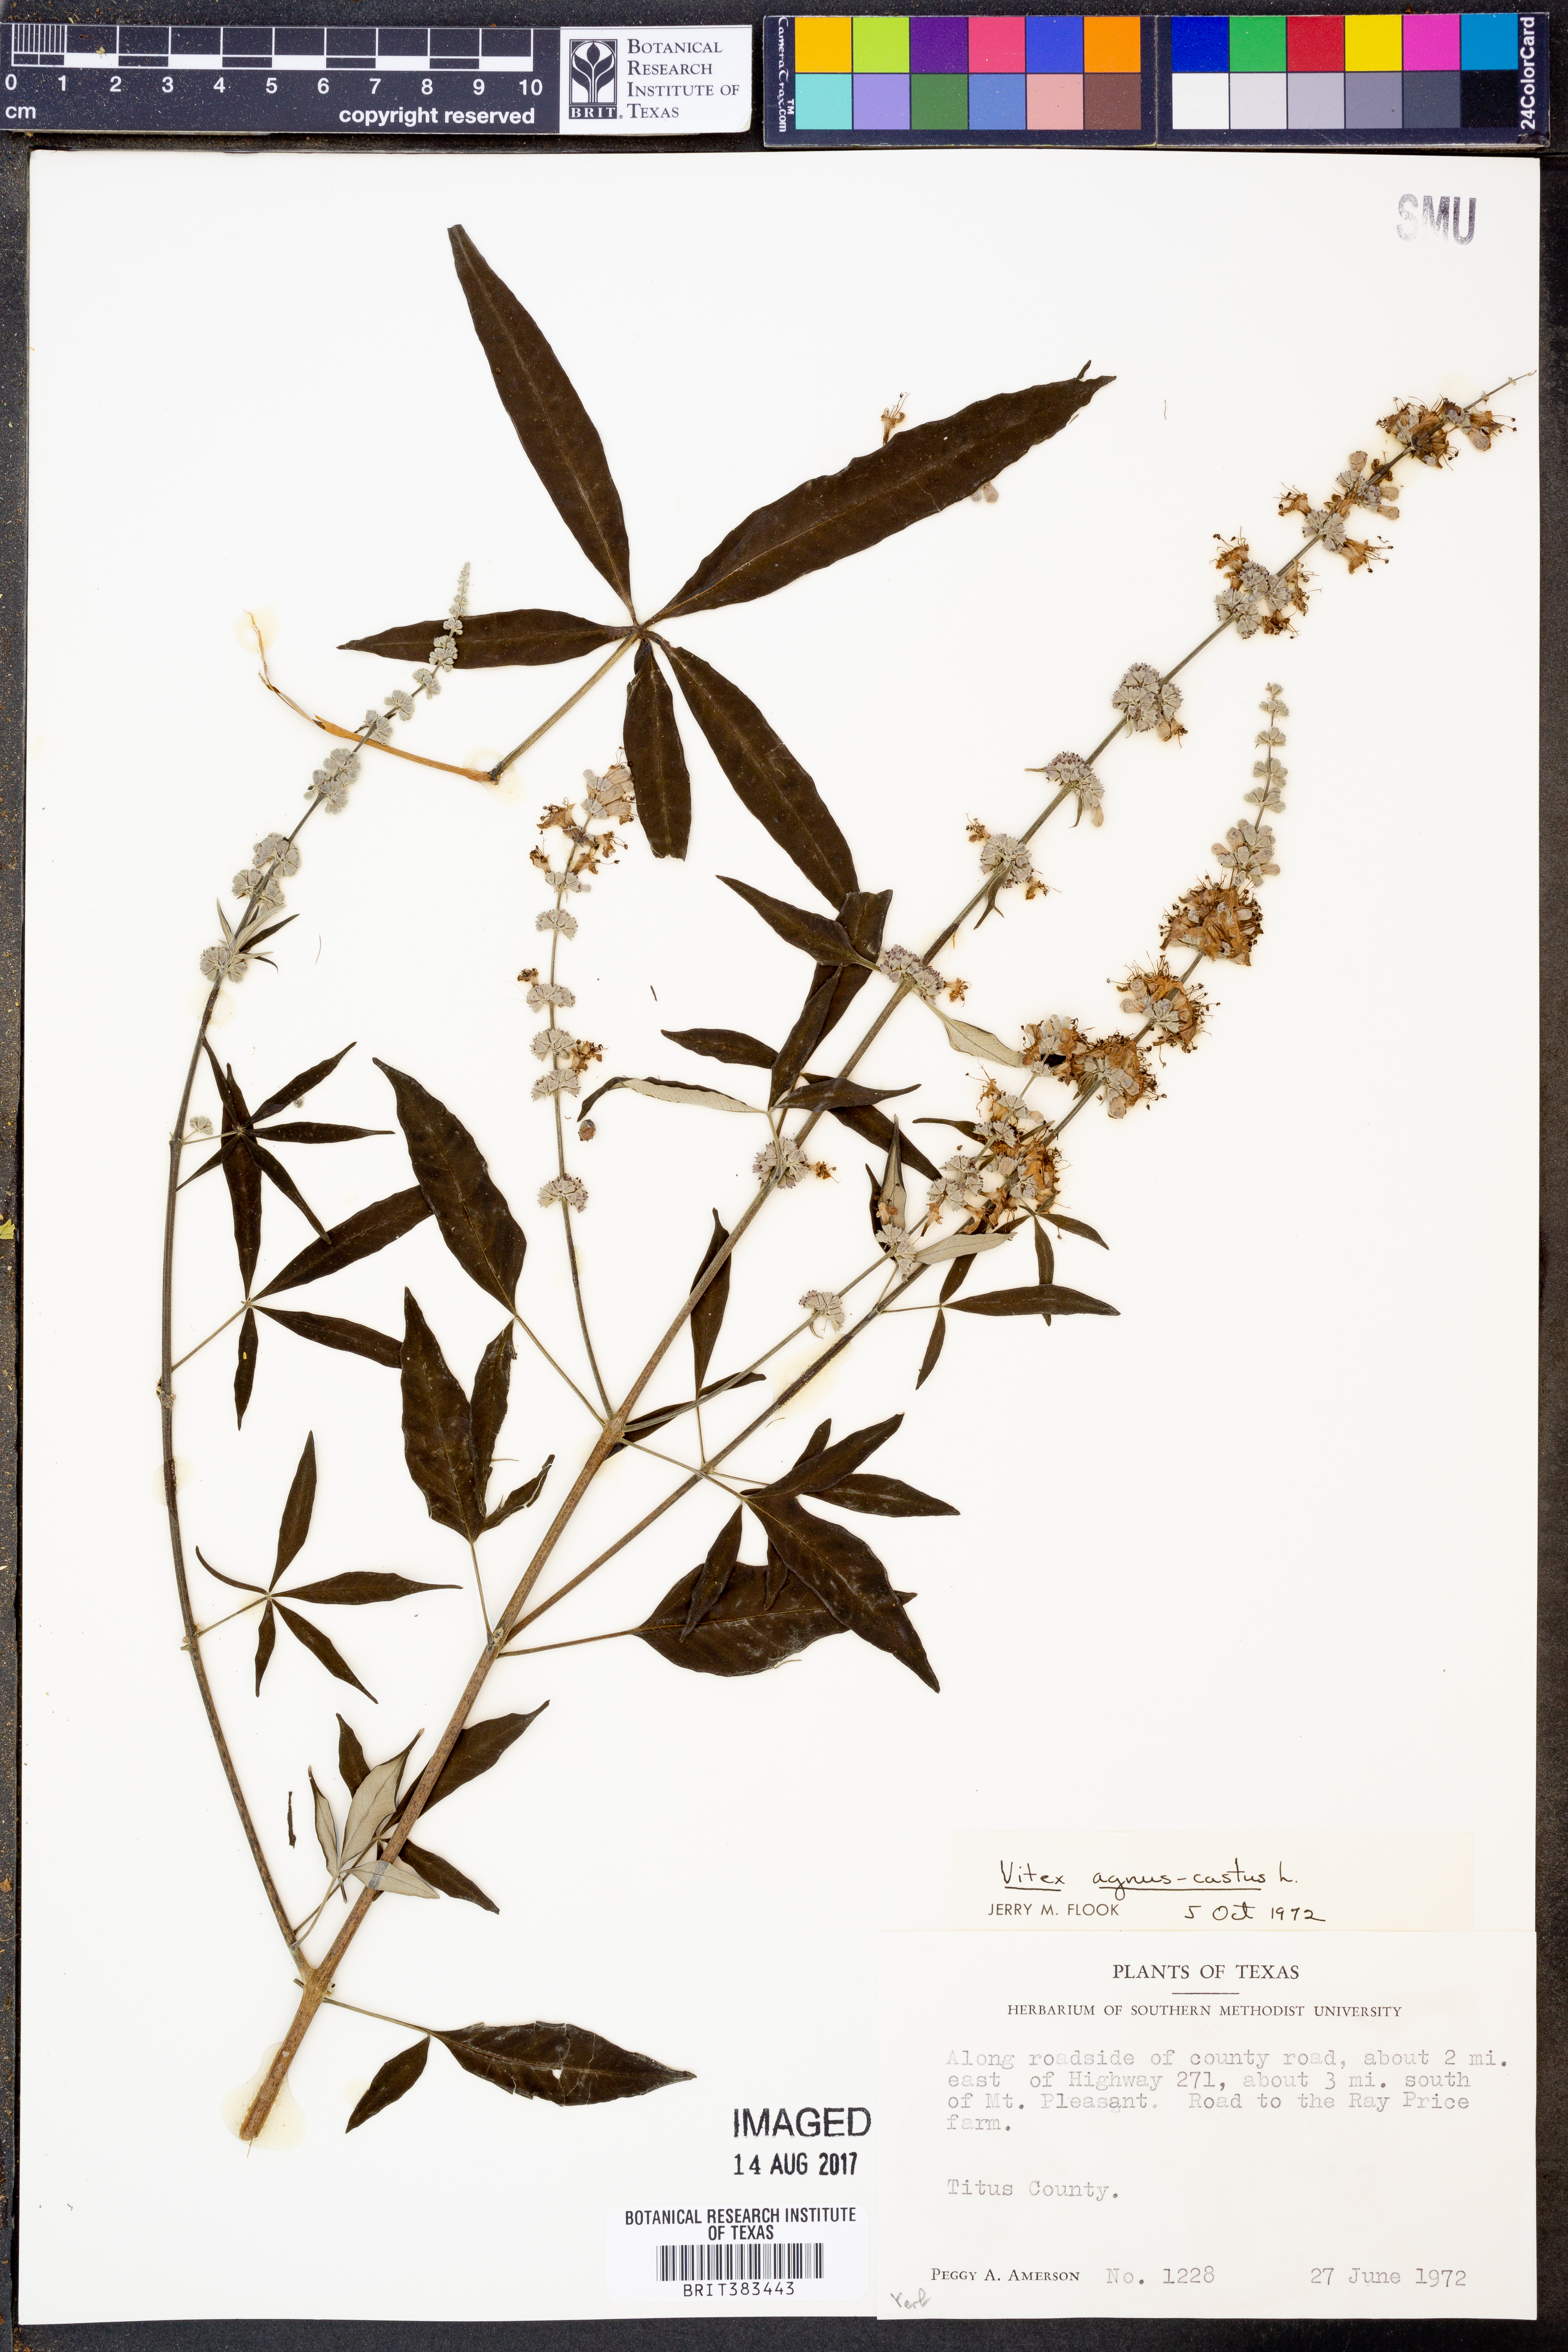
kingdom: Plantae
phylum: Tracheophyta
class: Magnoliopsida
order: Lamiales
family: Lamiaceae
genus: Vitex
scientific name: Vitex agnus-castus
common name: Chasteberry
